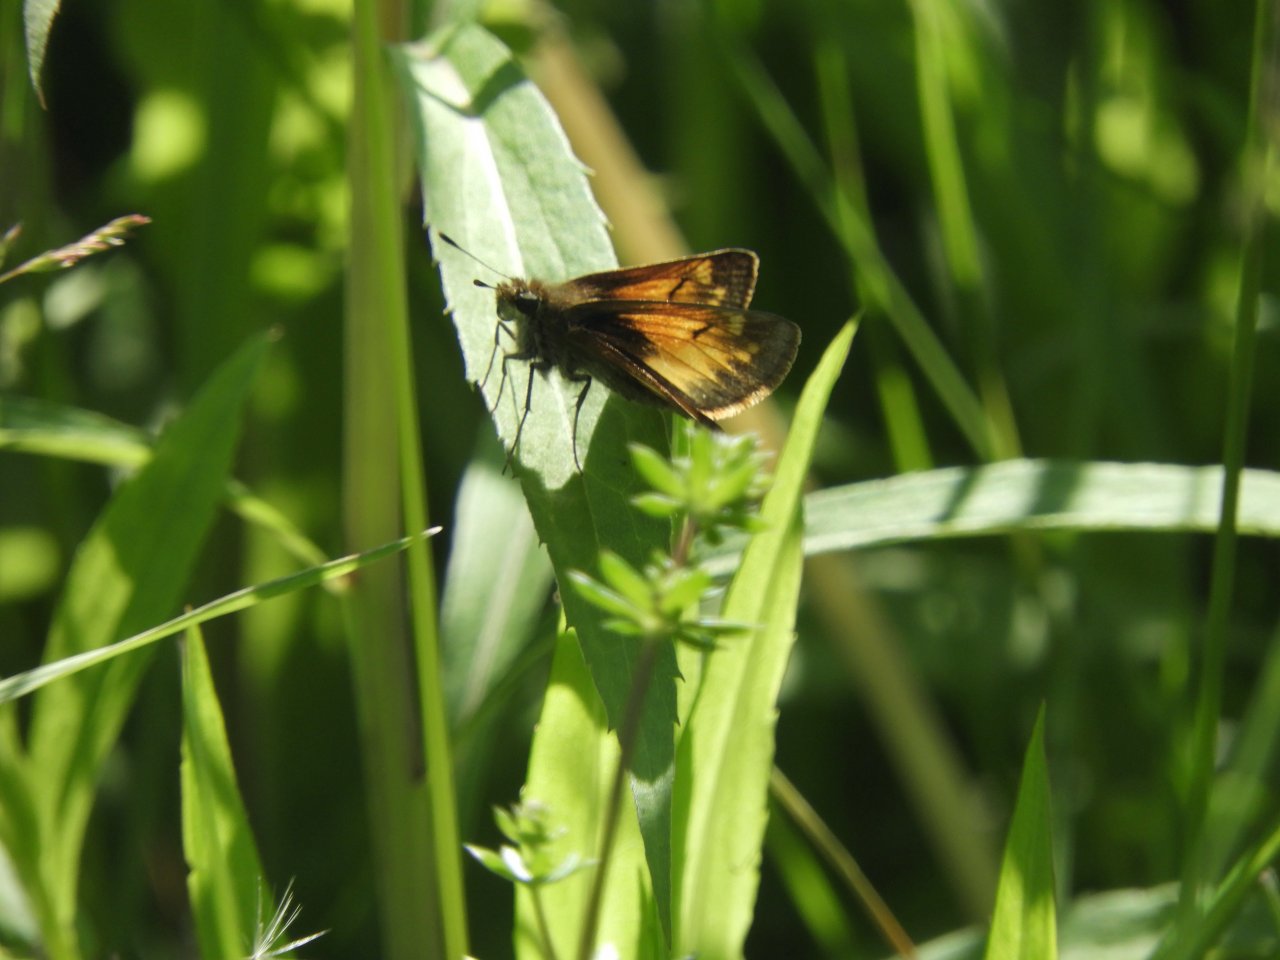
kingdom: Animalia
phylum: Arthropoda
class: Insecta
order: Lepidoptera
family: Hesperiidae
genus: Lon
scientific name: Lon hobomok
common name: Hobomok Skipper
